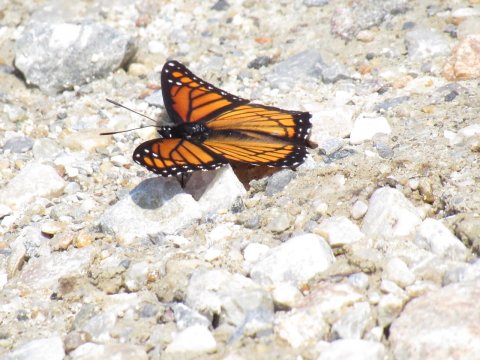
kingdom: Animalia
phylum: Arthropoda
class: Insecta
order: Lepidoptera
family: Nymphalidae
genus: Limenitis
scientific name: Limenitis archippus
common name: Viceroy
